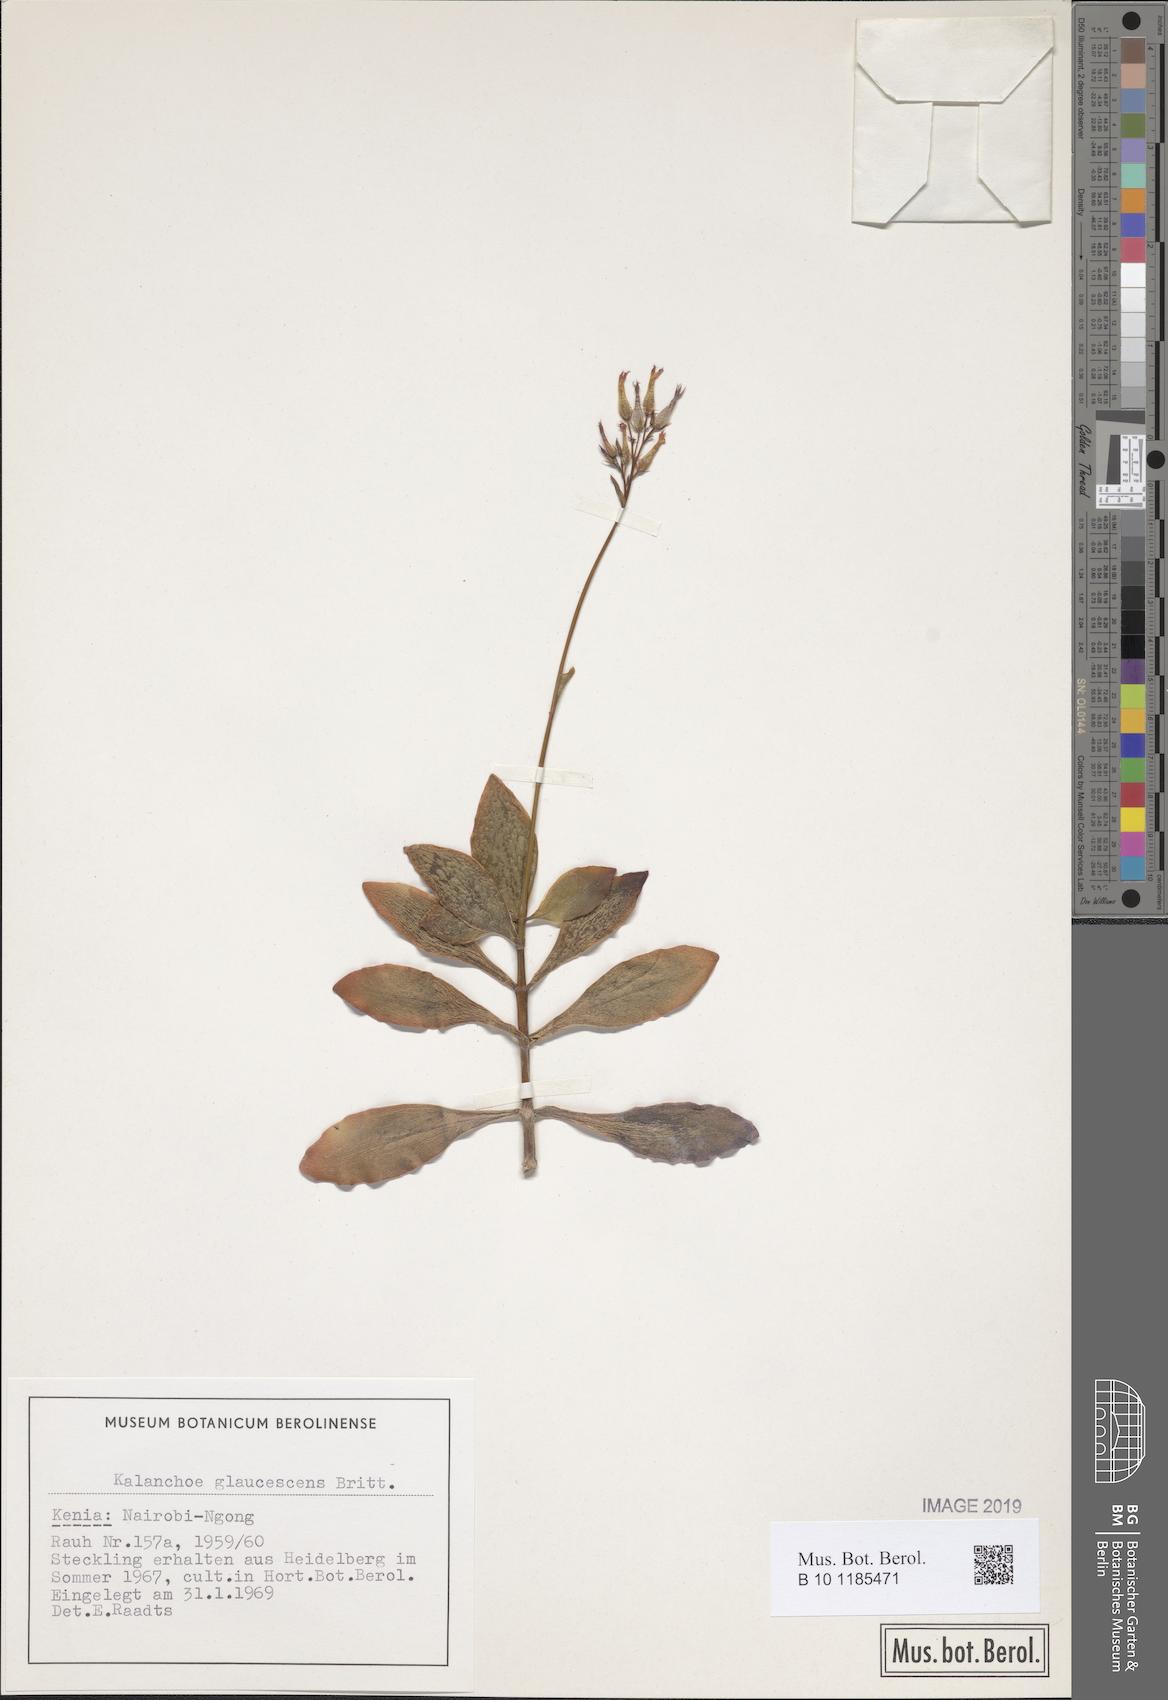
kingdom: Plantae
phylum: Tracheophyta
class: Magnoliopsida
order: Saxifragales
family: Crassulaceae
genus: Kalanchoe
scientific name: Kalanchoe glaucescens
